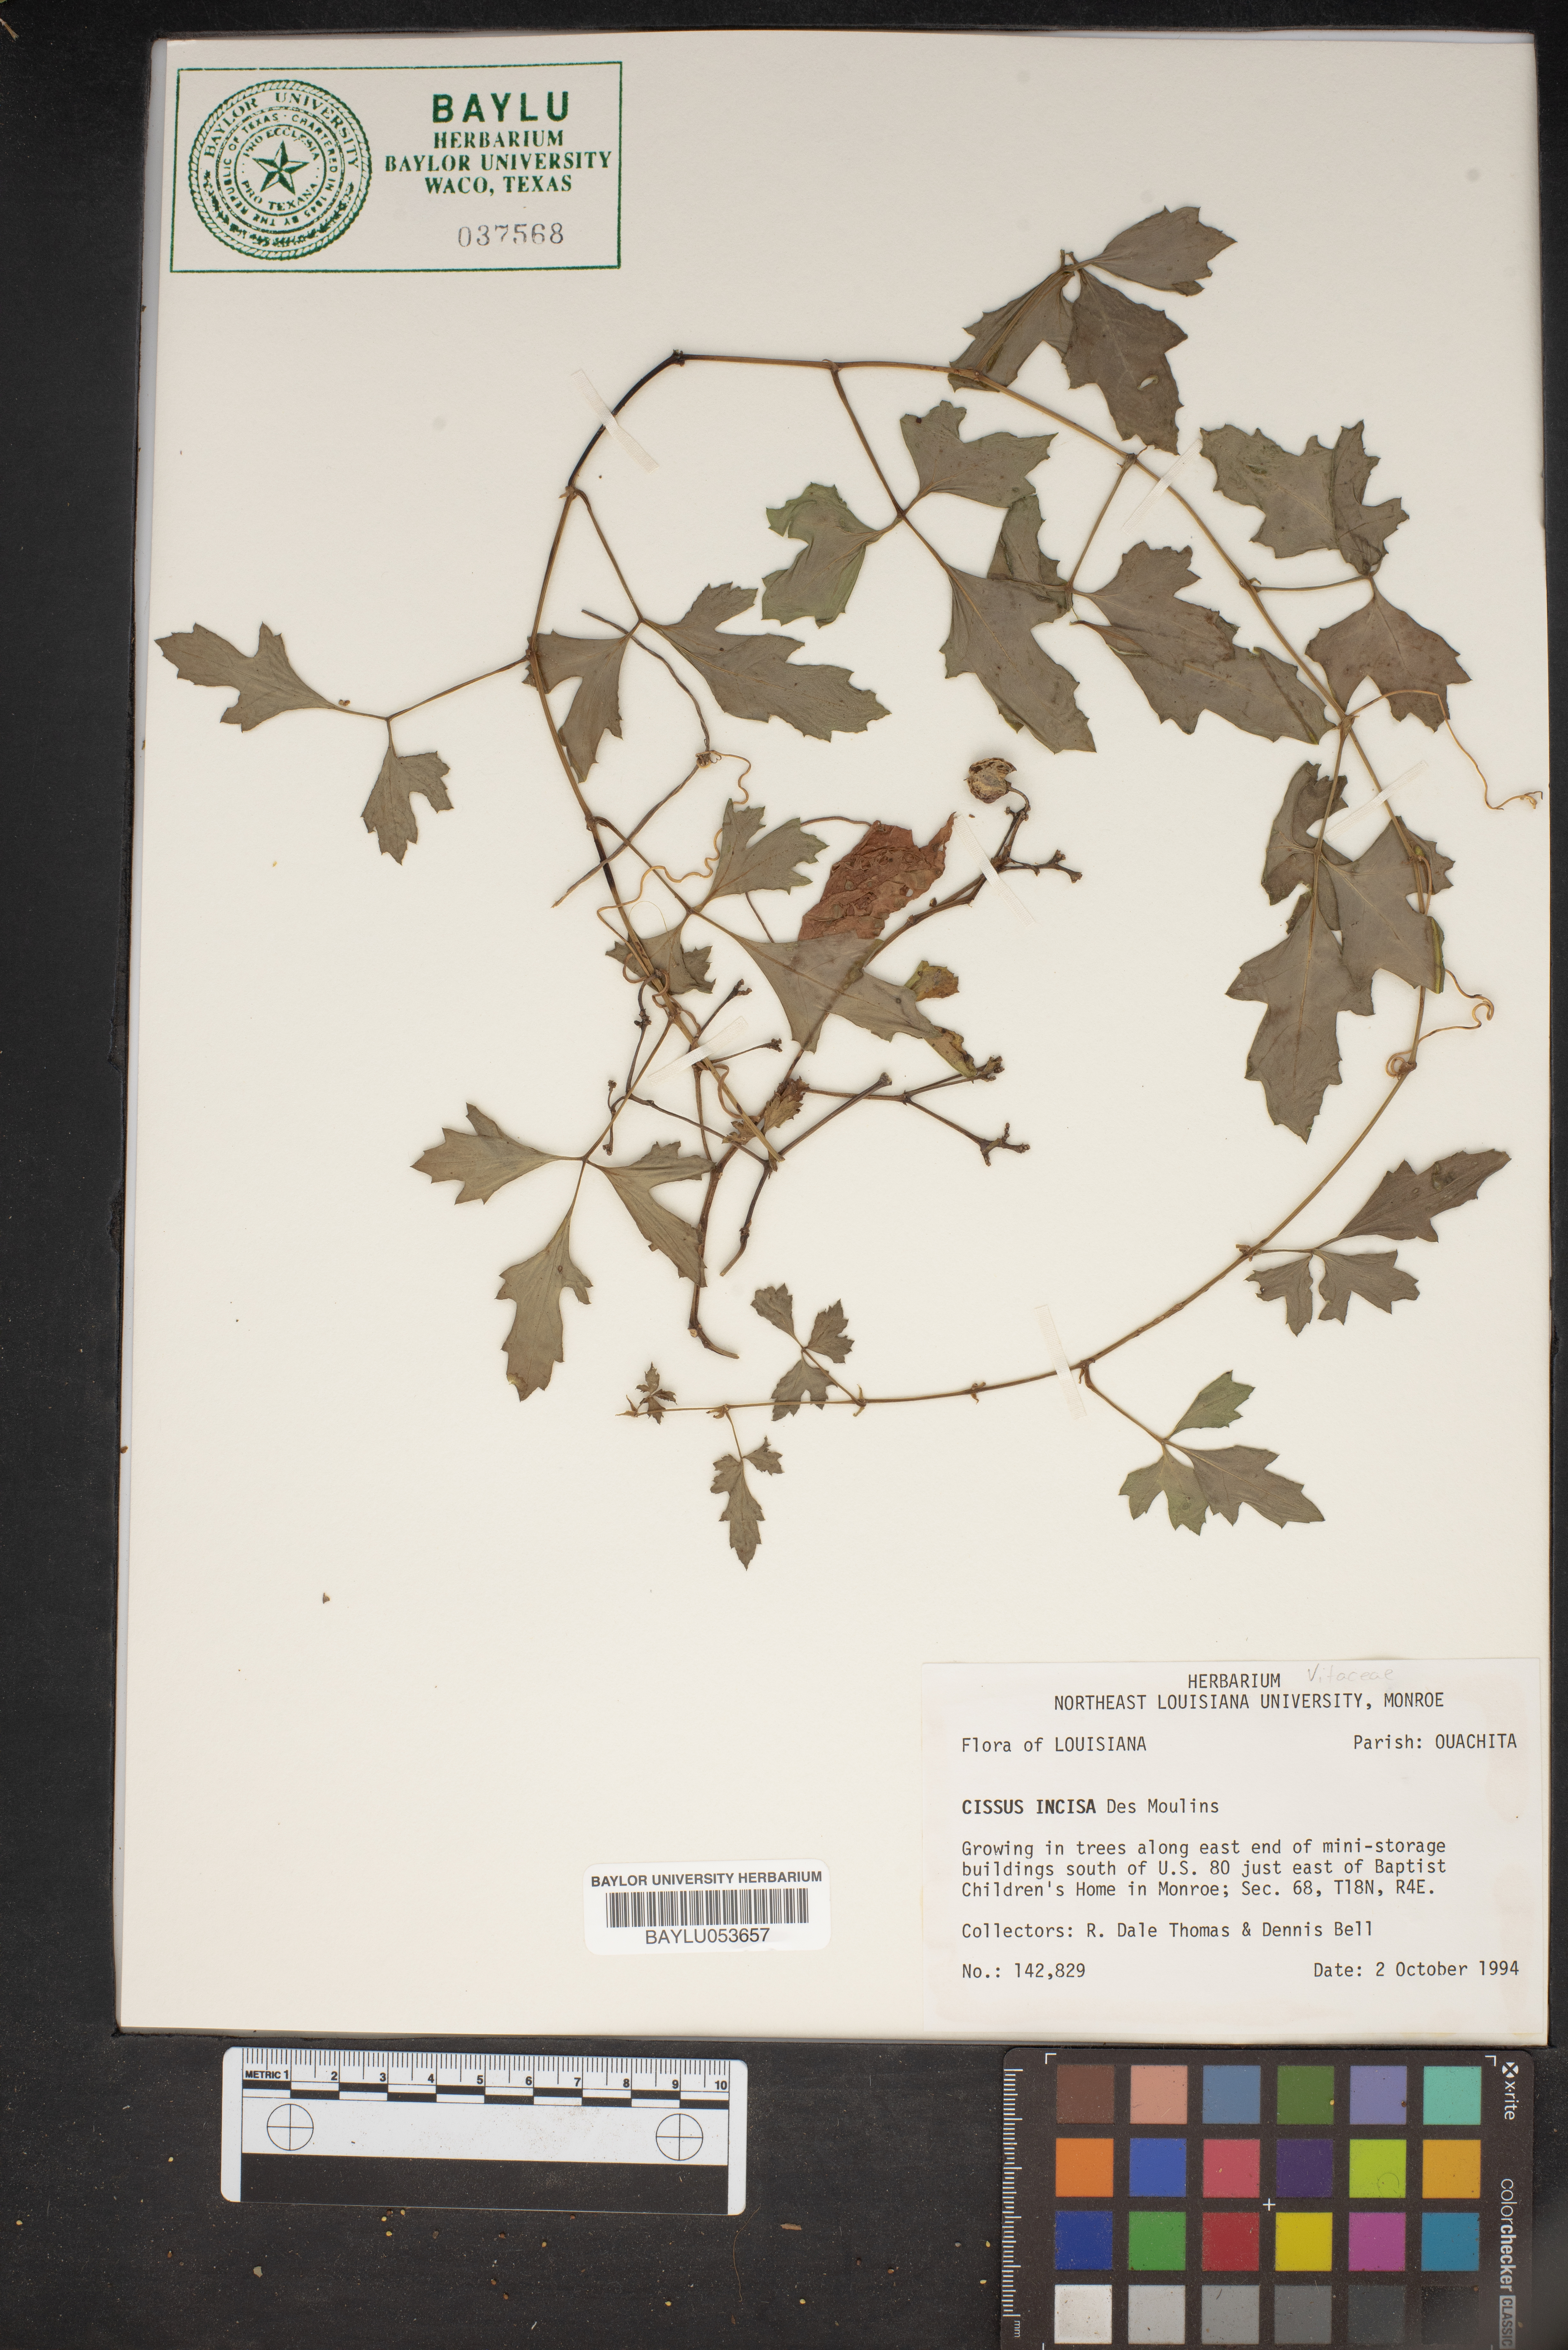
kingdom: Plantae
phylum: Tracheophyta
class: Magnoliopsida
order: Vitales
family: Vitaceae
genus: Cissus
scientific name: Cissus trifoliata
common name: Vine-sorrel
